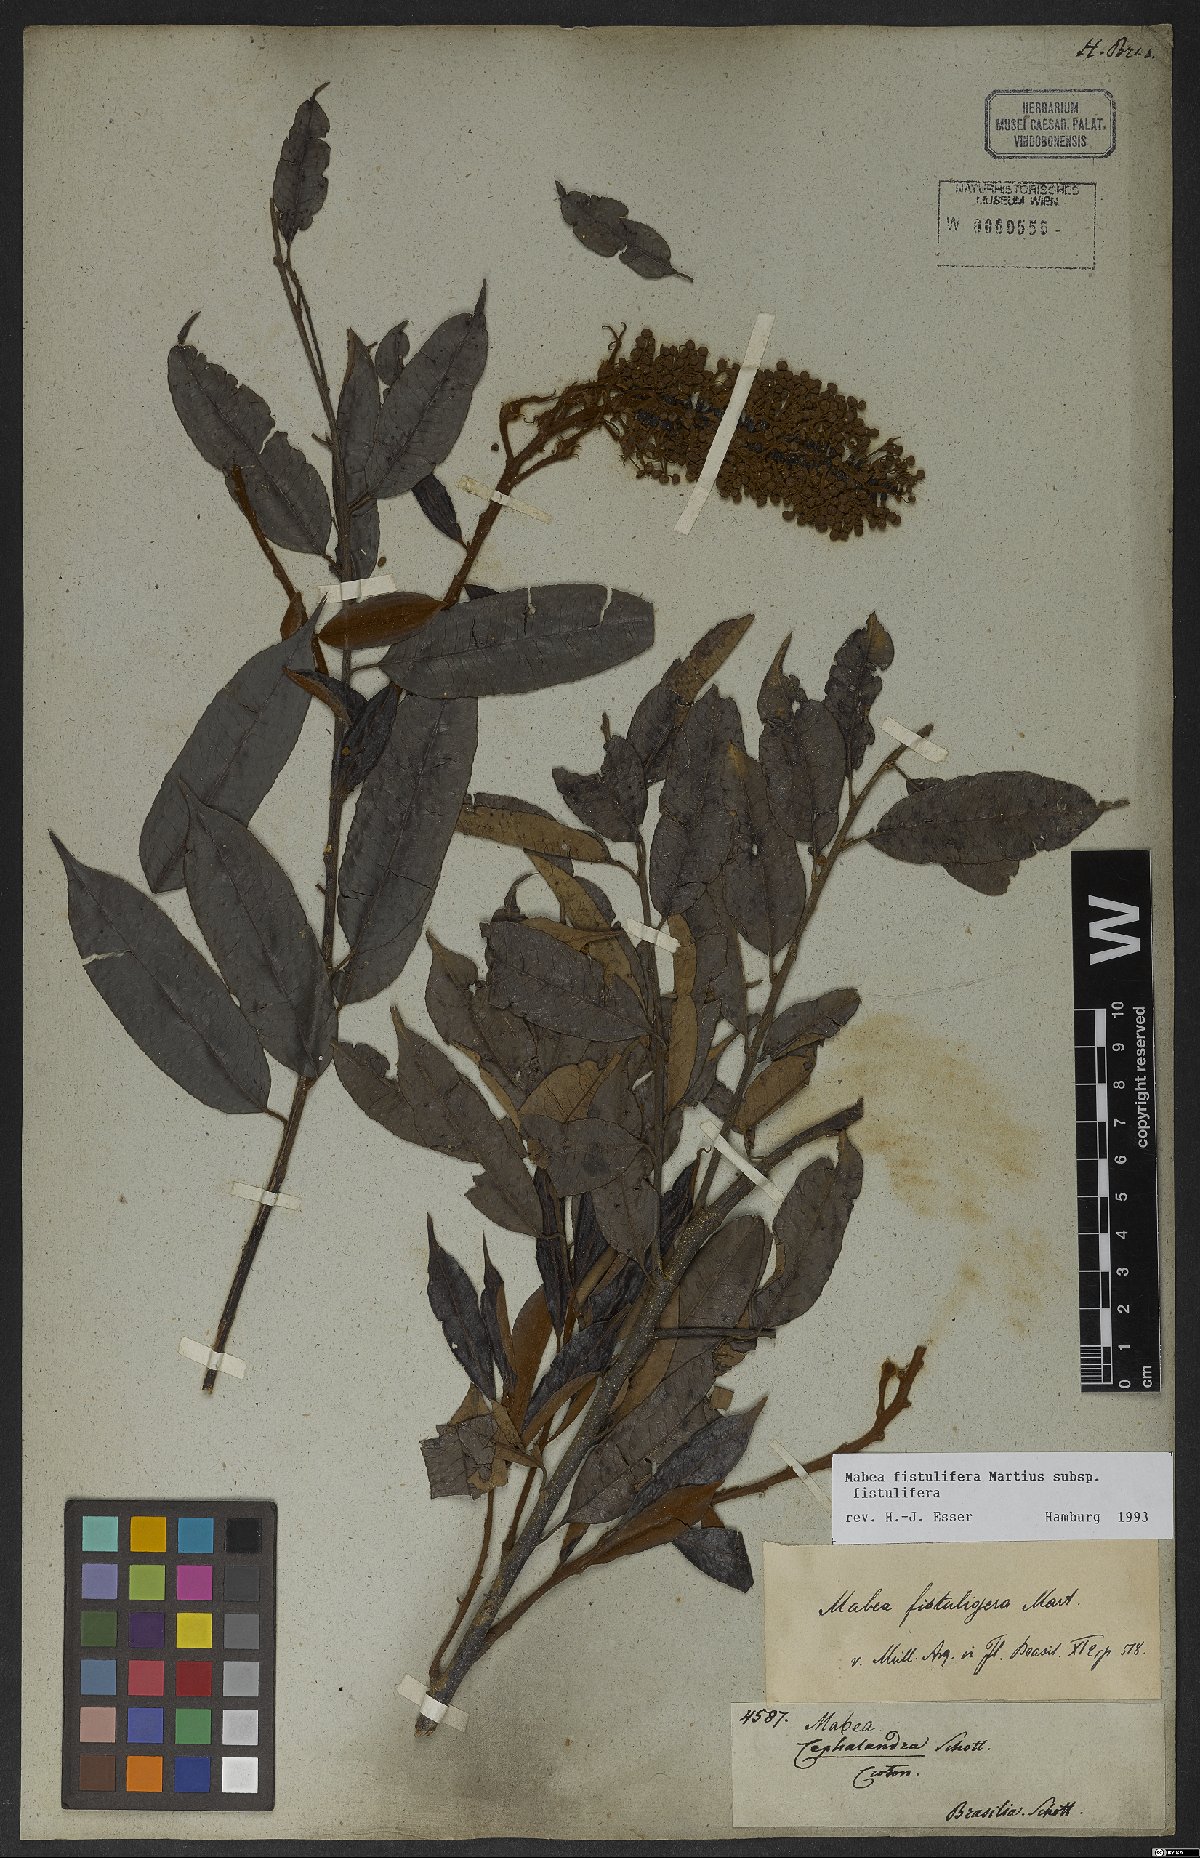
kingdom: Plantae
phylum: Tracheophyta
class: Magnoliopsida
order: Malpighiales
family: Euphorbiaceae
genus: Mabea
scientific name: Mabea fistulifera
